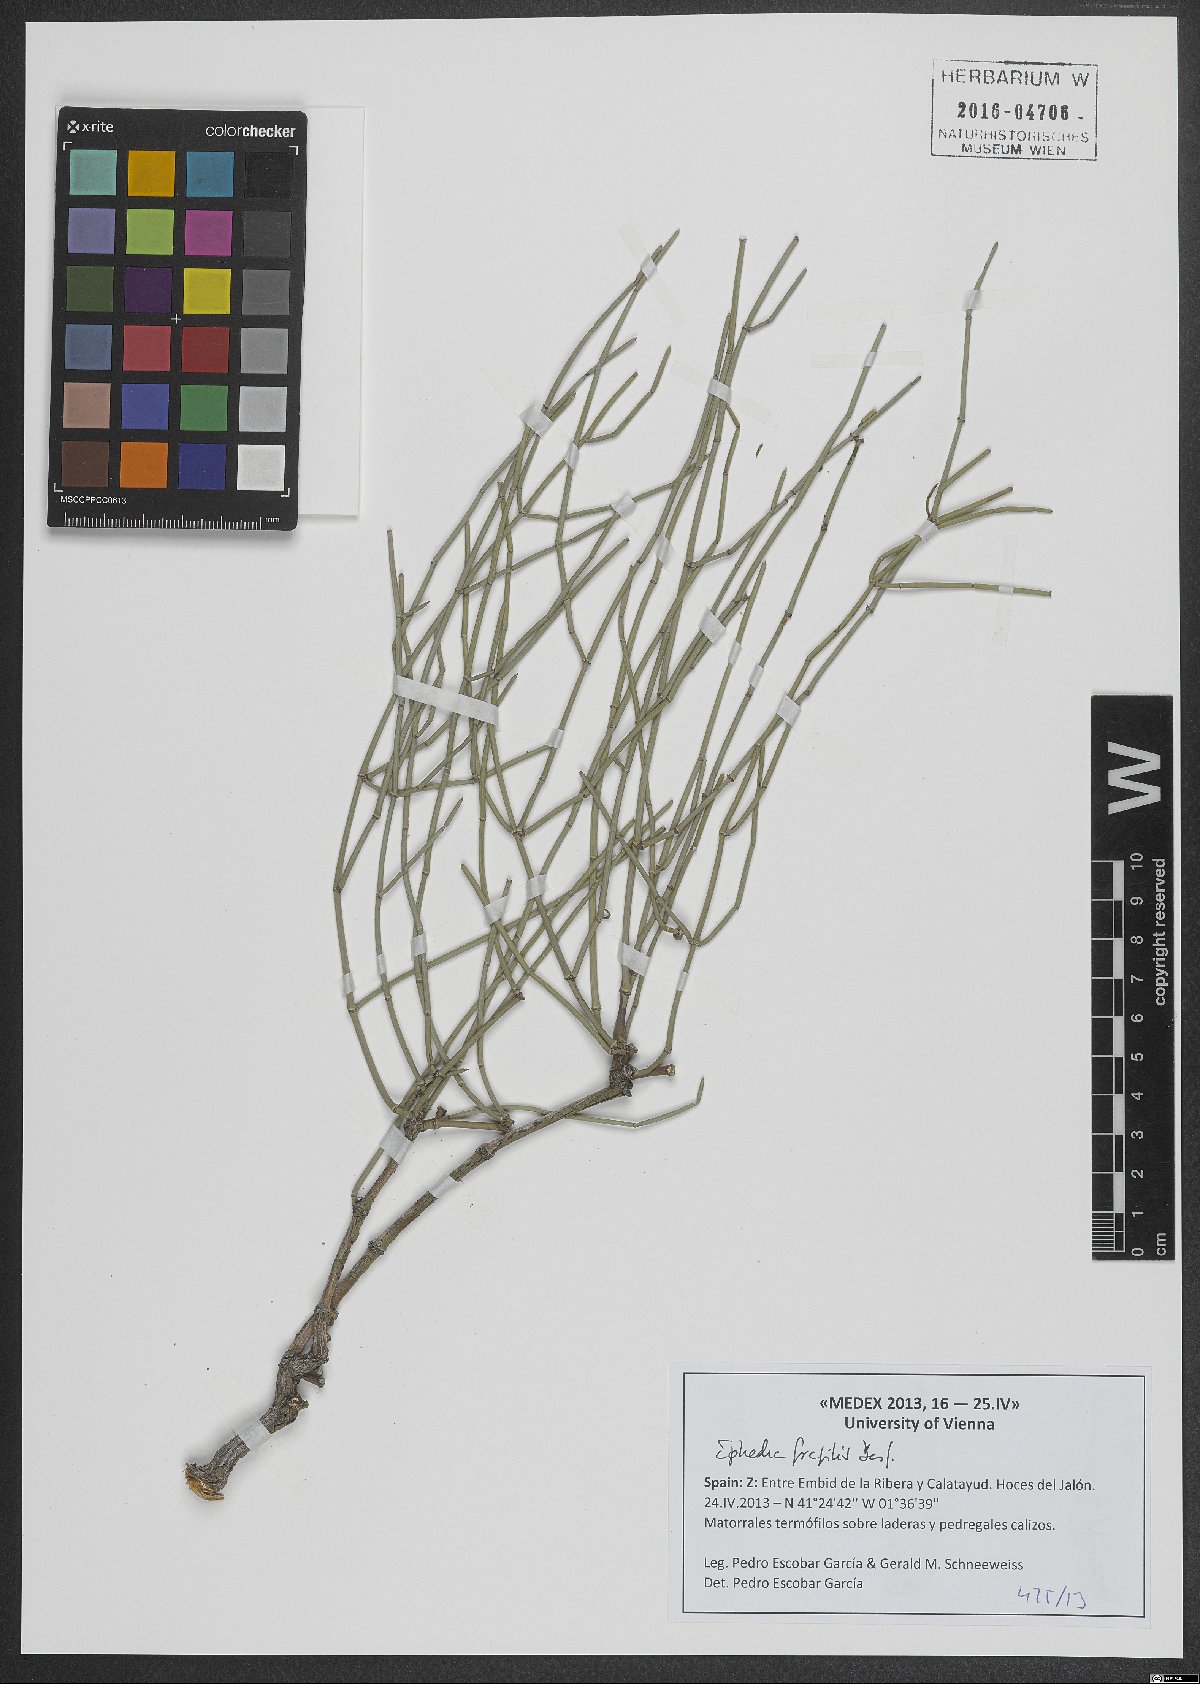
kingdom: Plantae
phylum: Tracheophyta
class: Gnetopsida
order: Ephedrales
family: Ephedraceae
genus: Ephedra
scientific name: Ephedra fragilis
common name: Joint pine
